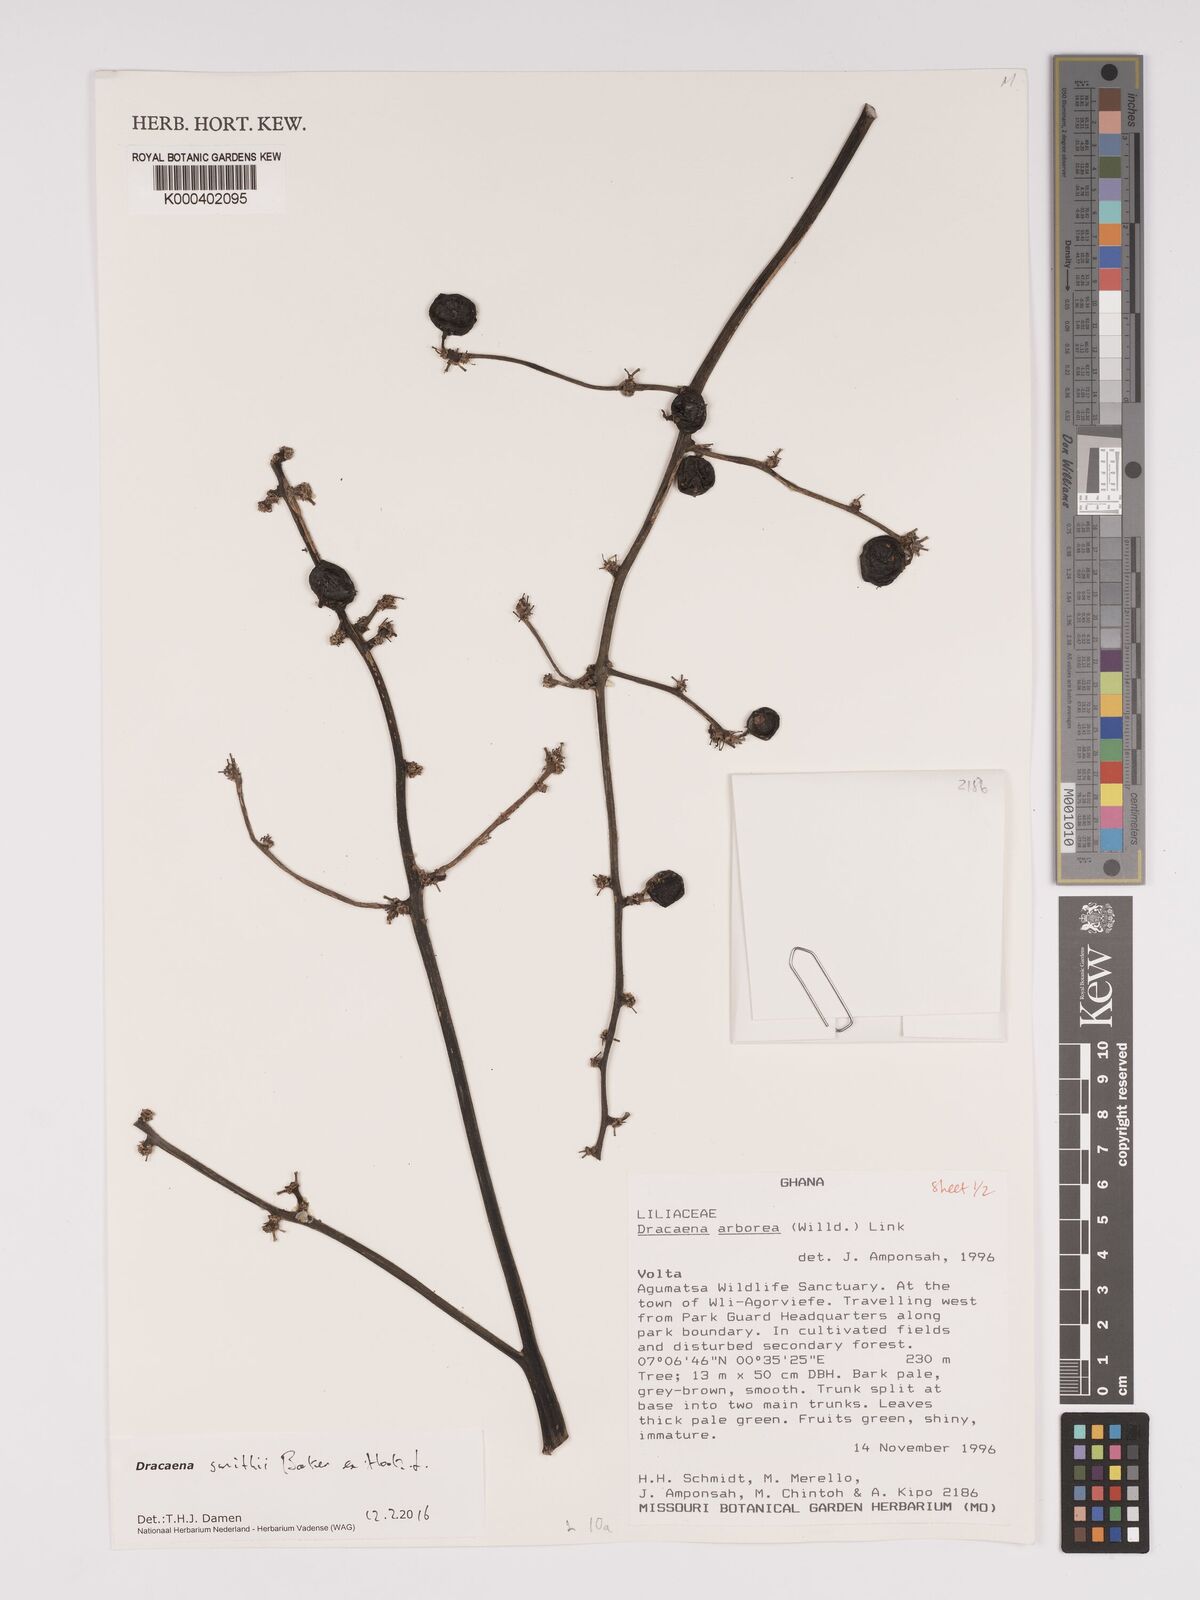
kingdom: Plantae
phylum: Tracheophyta
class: Liliopsida
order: Asparagales
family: Asparagaceae
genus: Dracaena
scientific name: Dracaena arborea
